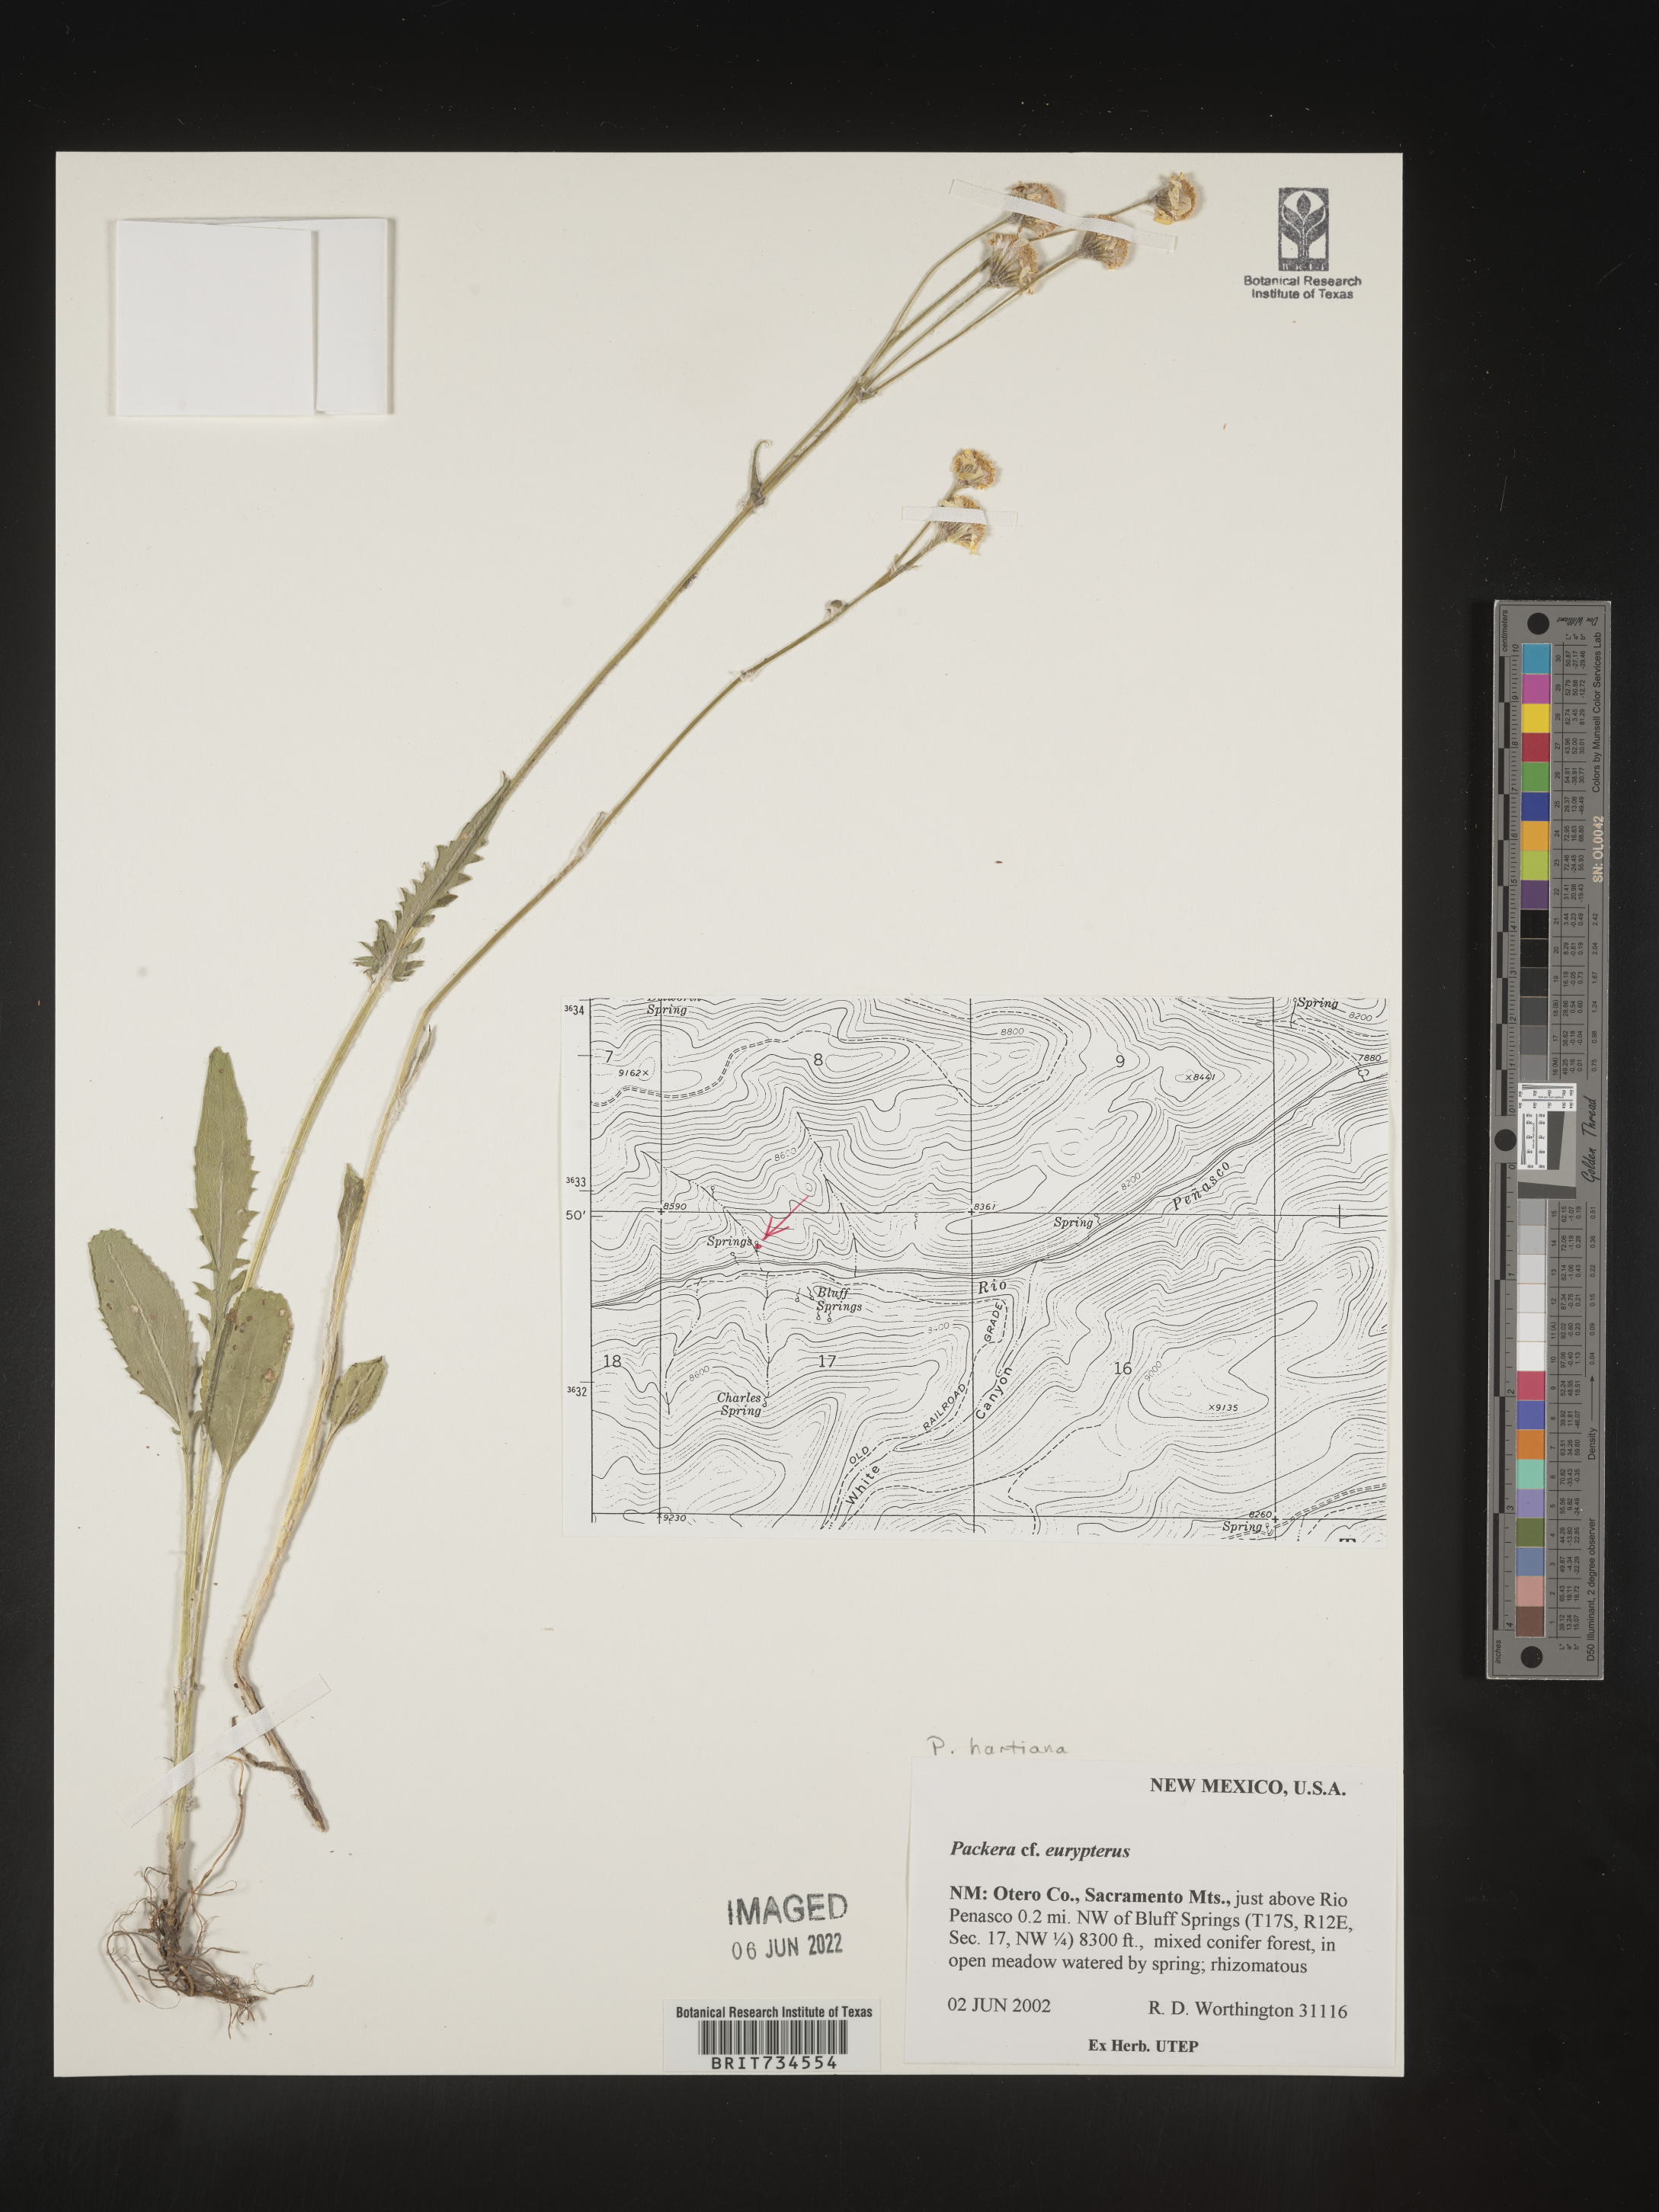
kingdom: Plantae
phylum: Tracheophyta
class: Magnoliopsida
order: Asterales
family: Asteraceae
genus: Packera
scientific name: Packera hartiana
